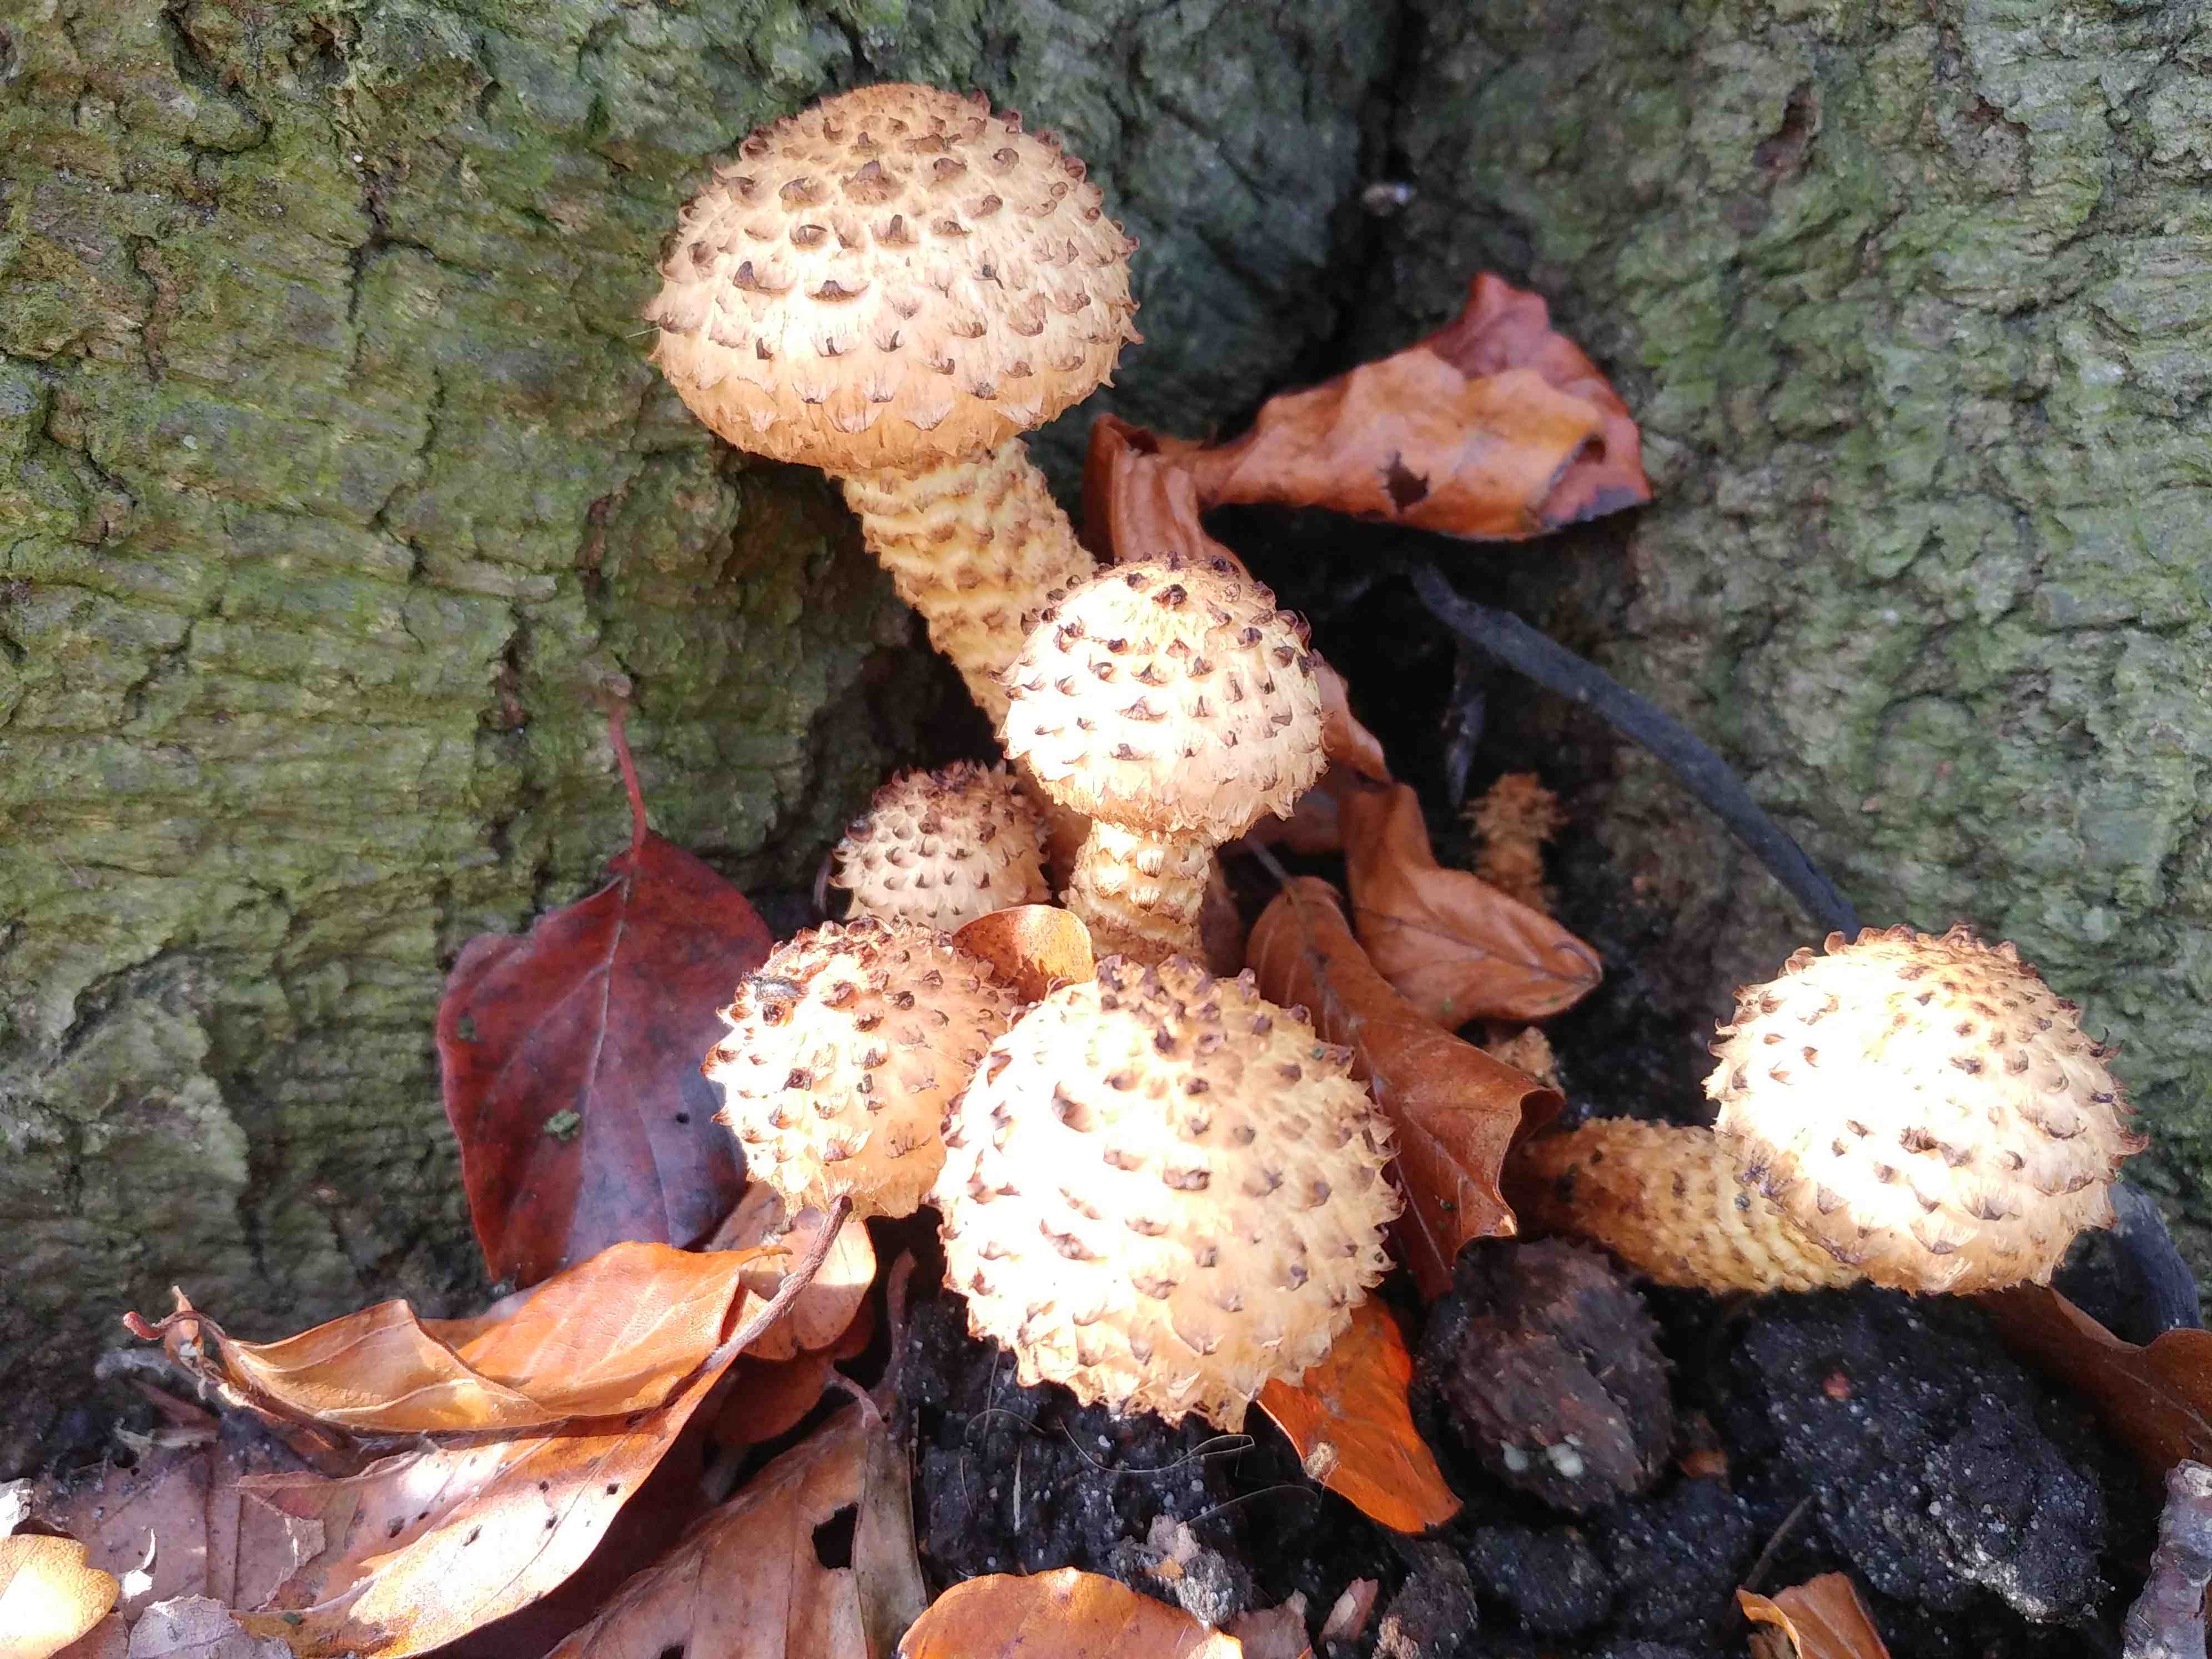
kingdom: Fungi
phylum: Basidiomycota
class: Agaricomycetes
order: Agaricales
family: Strophariaceae
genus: Pholiota
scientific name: Pholiota squarrosa
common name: krumskællet skælhat
